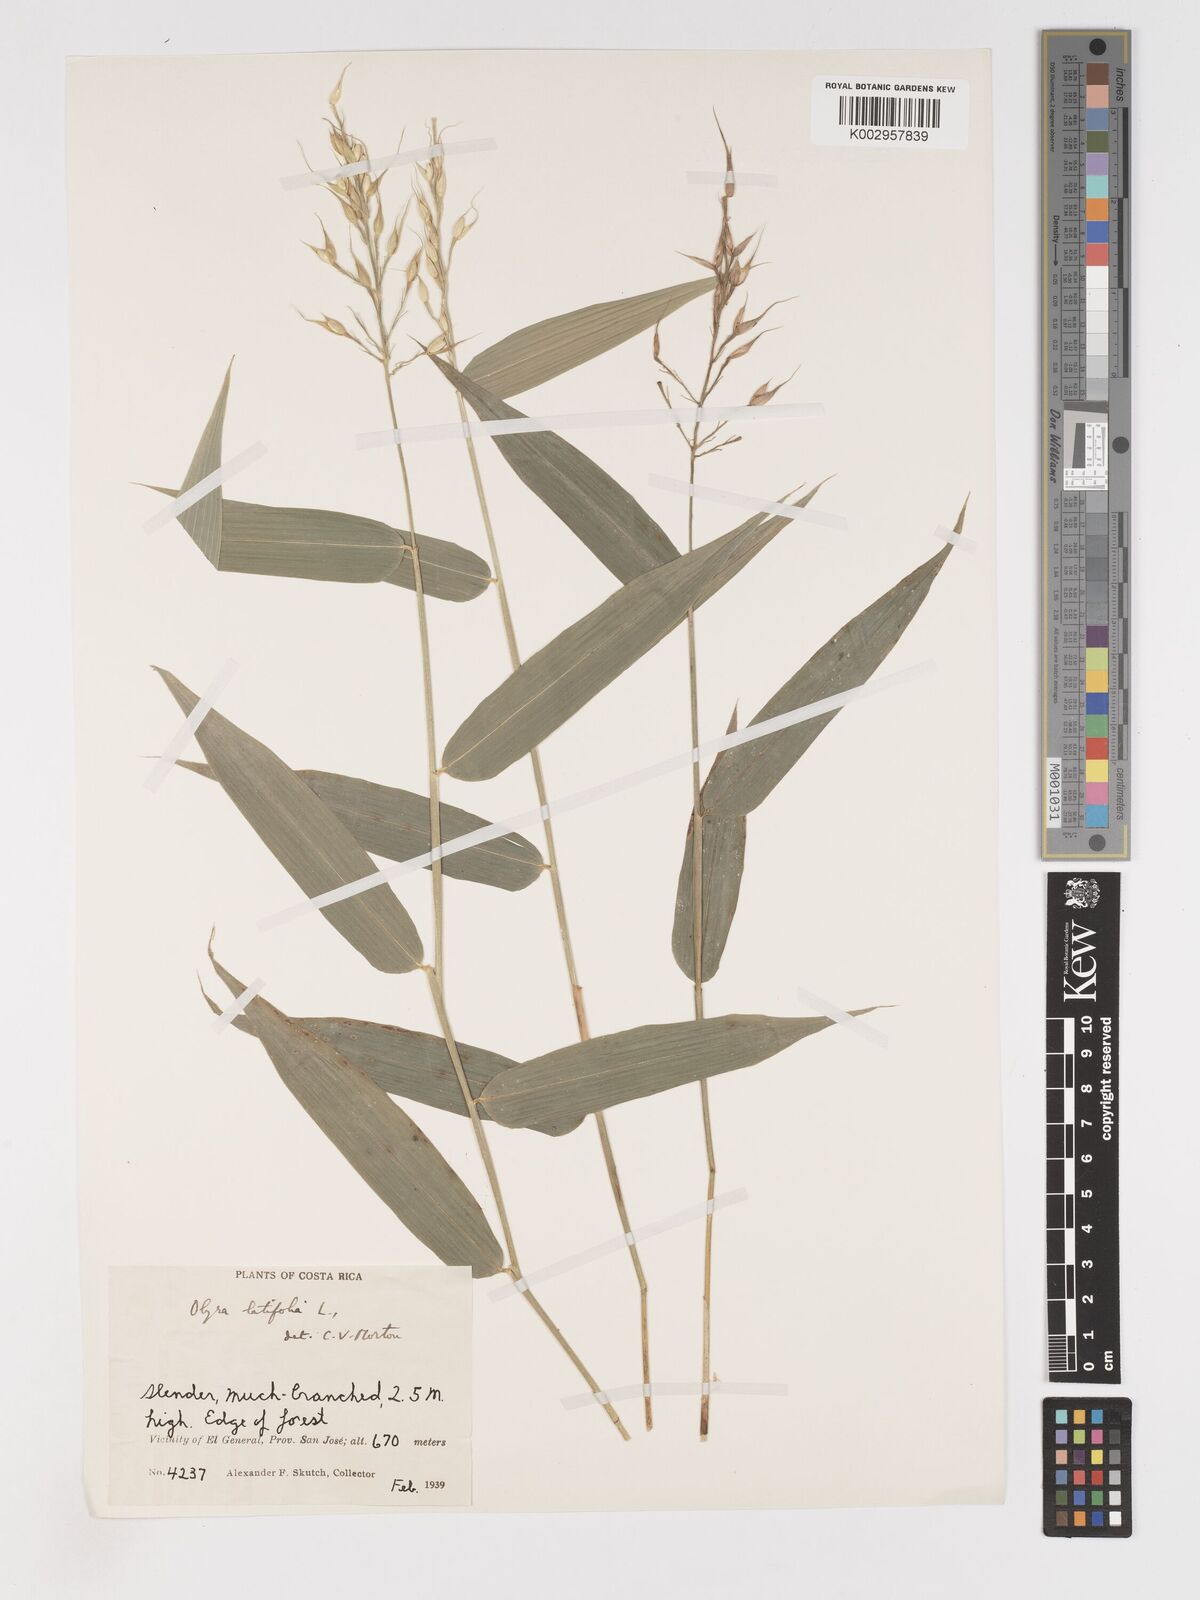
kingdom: Plantae
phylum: Tracheophyta
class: Liliopsida
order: Poales
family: Poaceae
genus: Olyra
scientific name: Olyra latifolia
